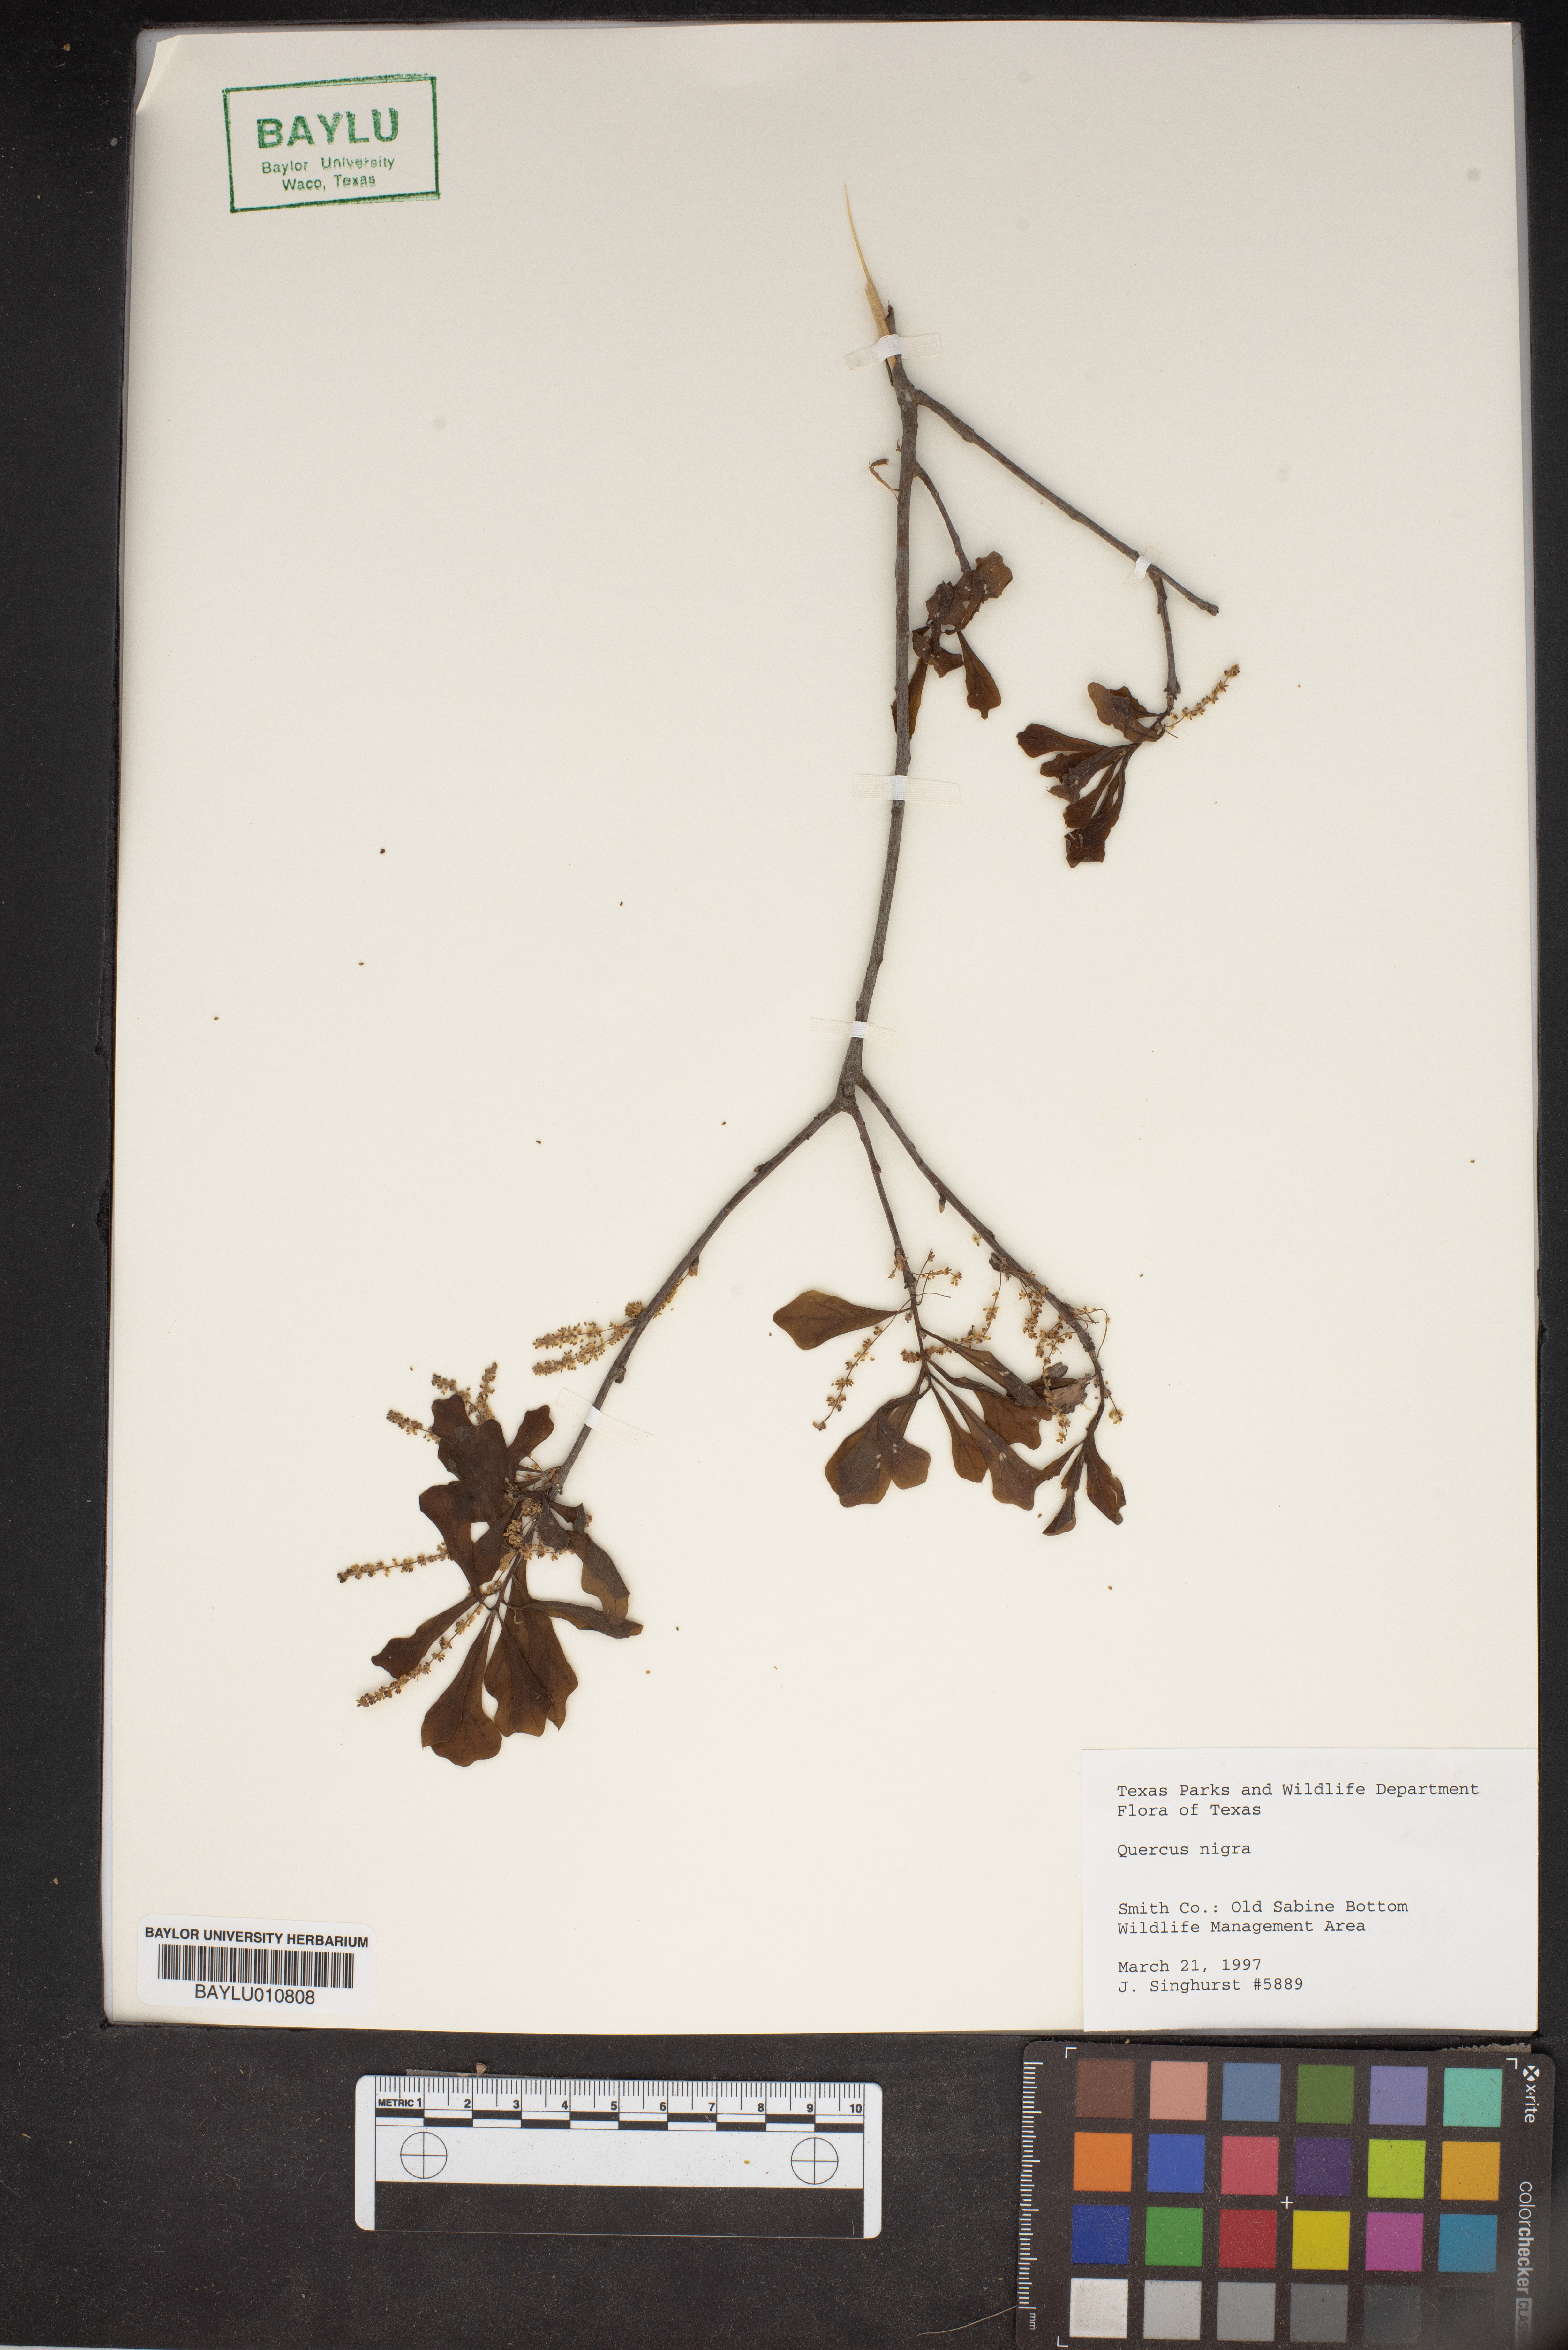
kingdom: Plantae
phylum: Tracheophyta
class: Magnoliopsida
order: Fagales
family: Fagaceae
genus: Quercus
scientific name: Quercus nigra
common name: Water oak
